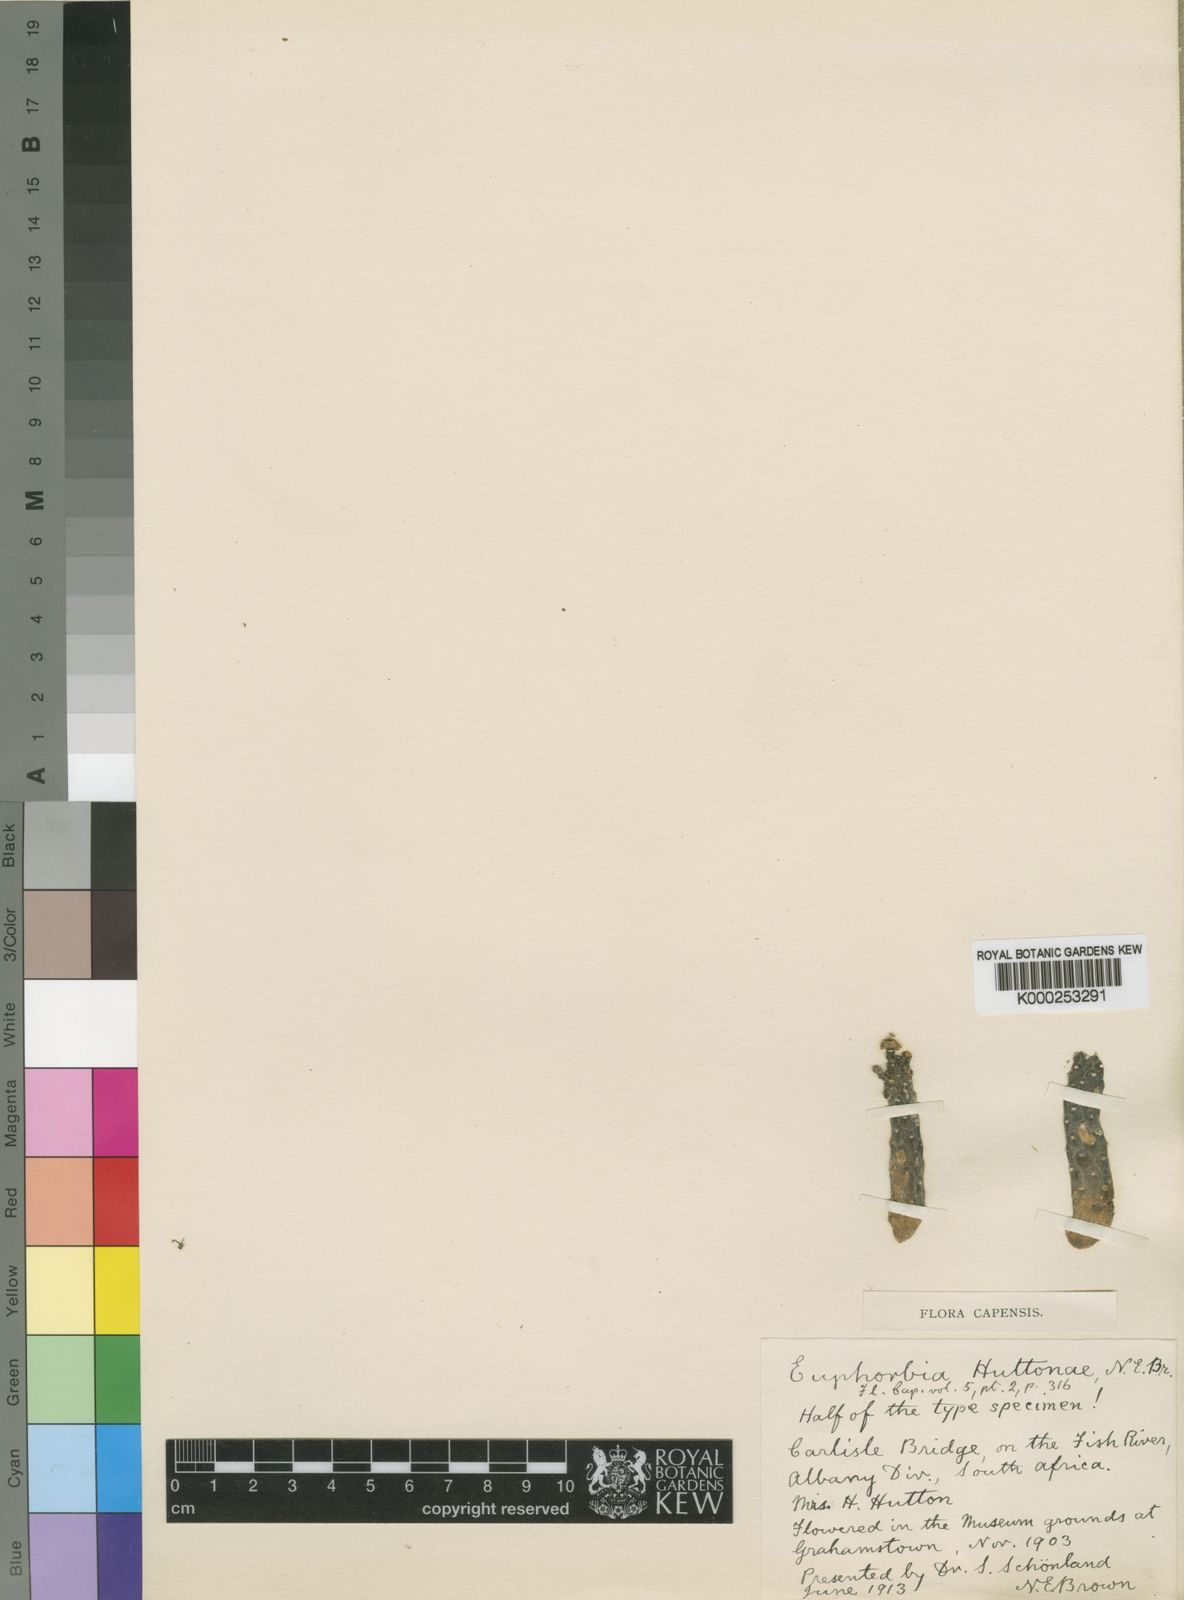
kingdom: Plantae
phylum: Tracheophyta
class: Magnoliopsida
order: Malpighiales
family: Euphorbiaceae
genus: Euphorbia
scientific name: Euphorbia inermis
